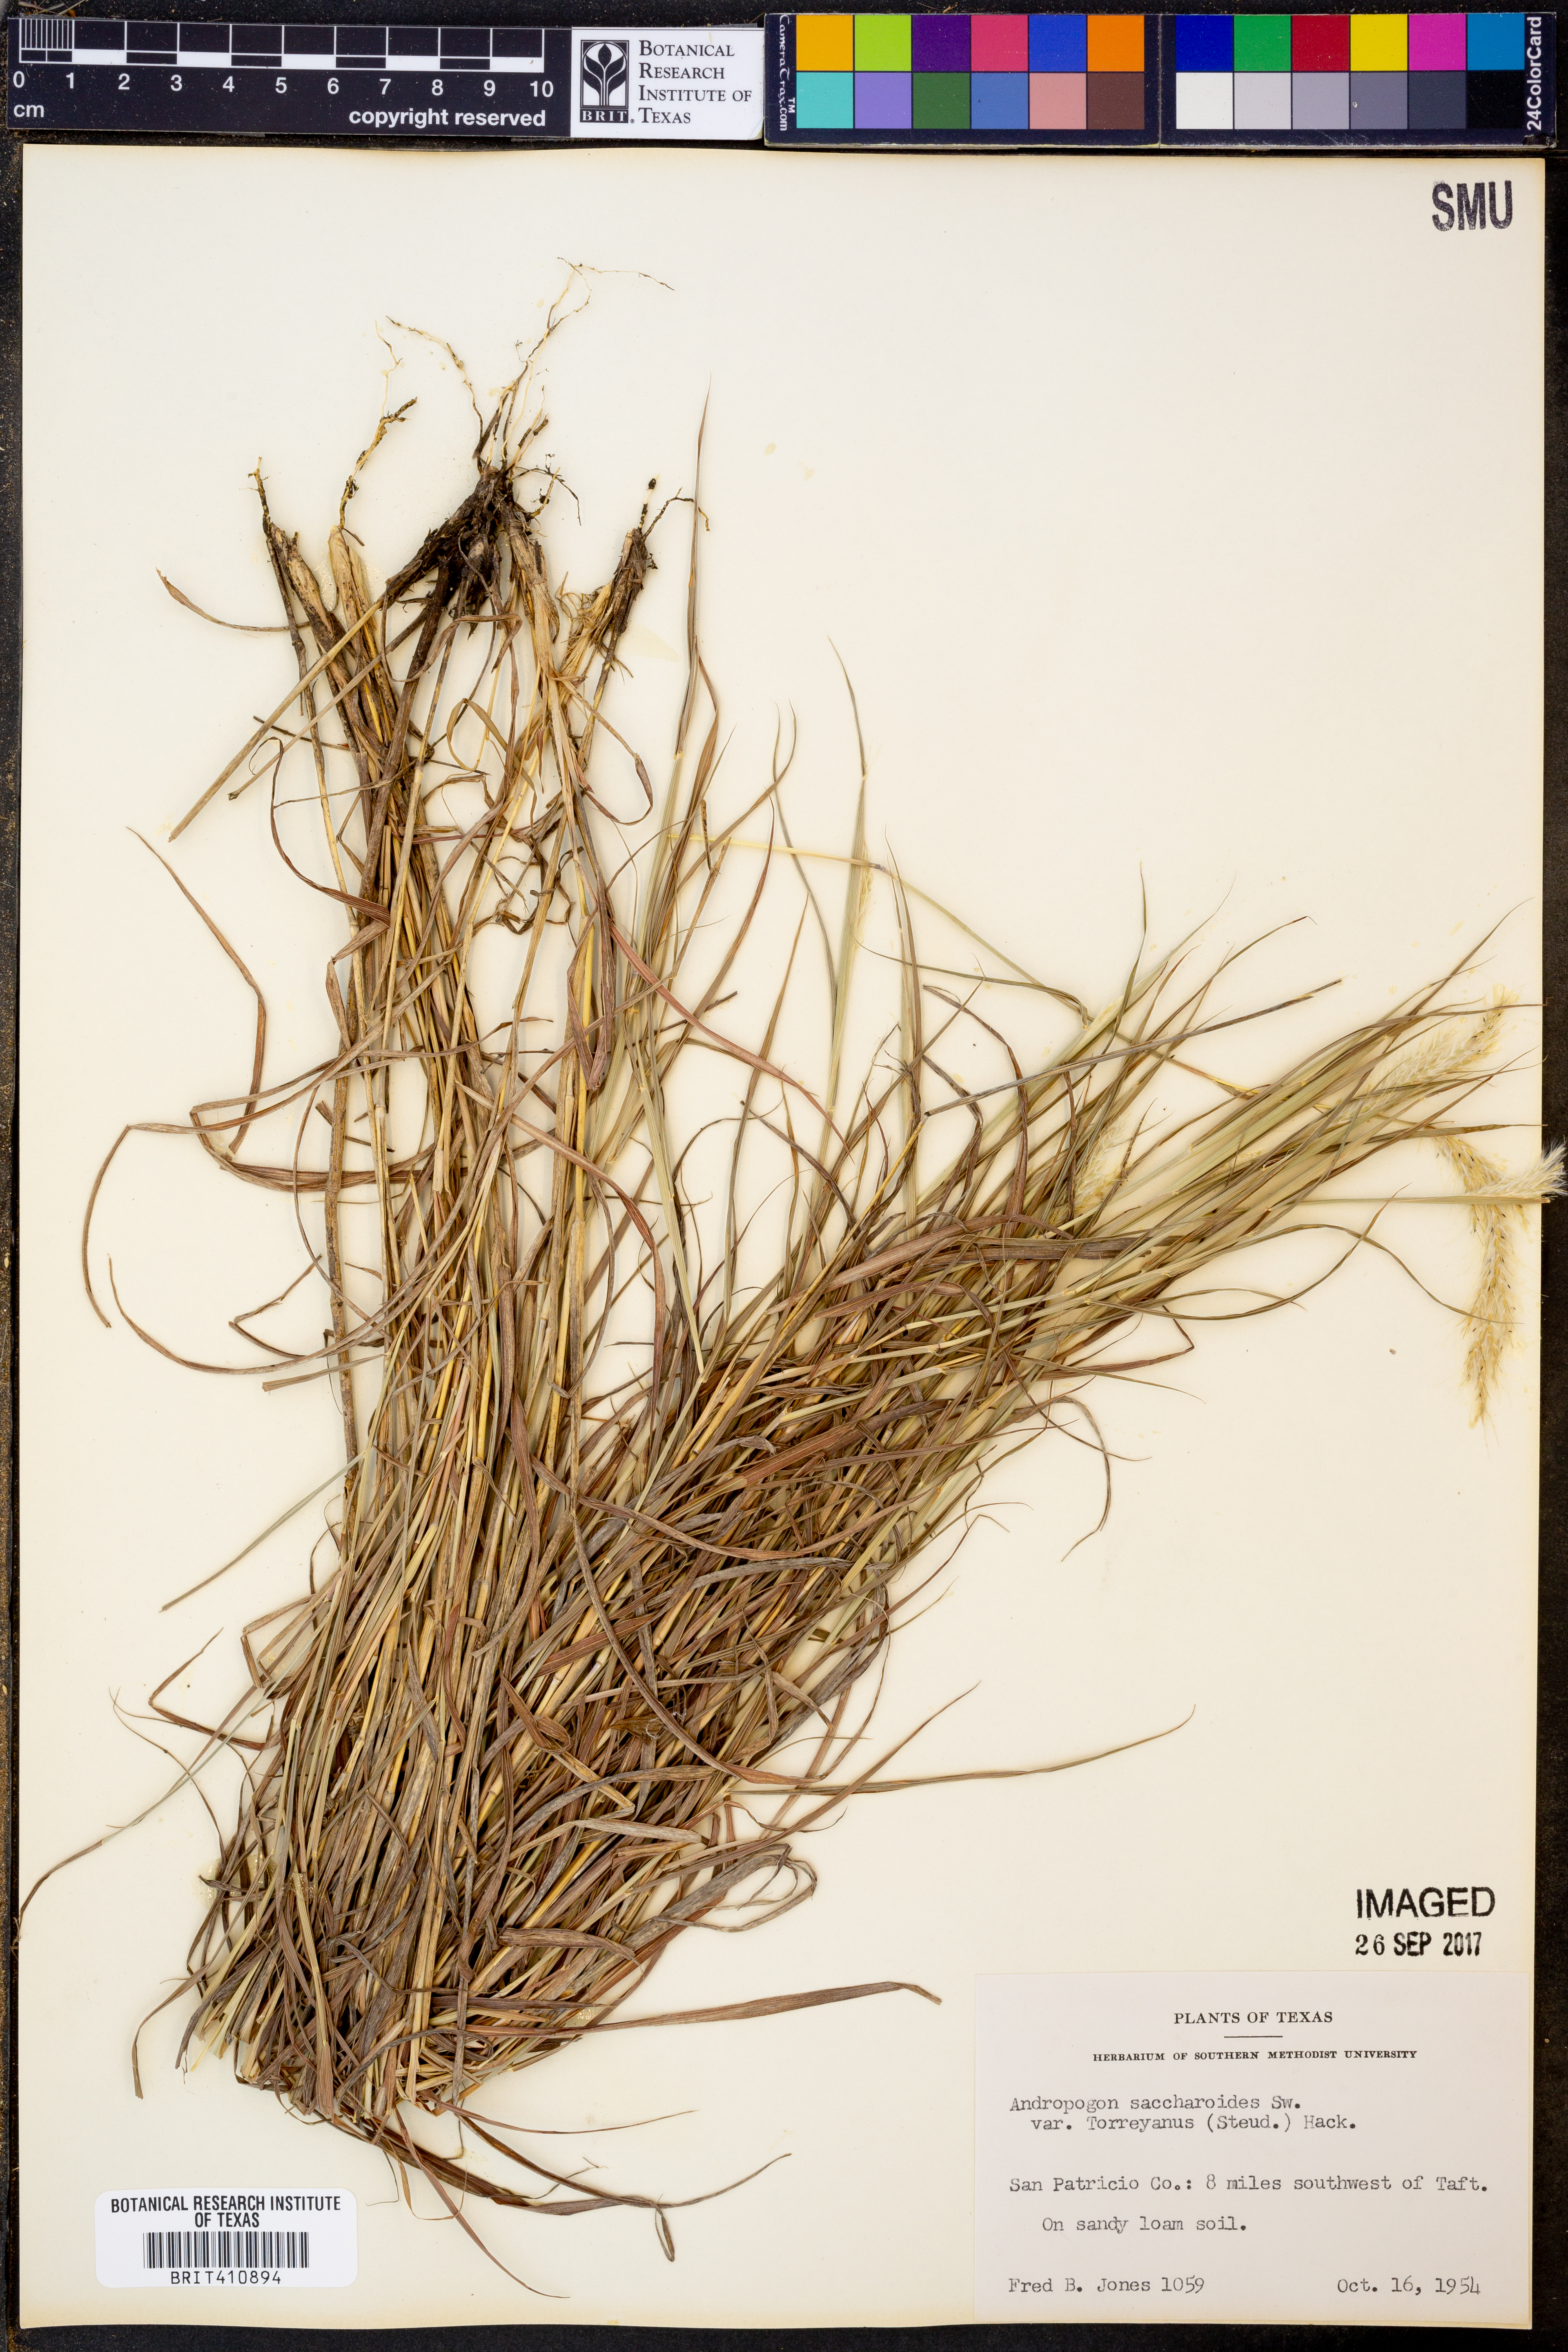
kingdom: Plantae
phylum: Tracheophyta
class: Liliopsida
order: Poales
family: Poaceae
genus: Bothriochloa
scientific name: Bothriochloa torreyana
